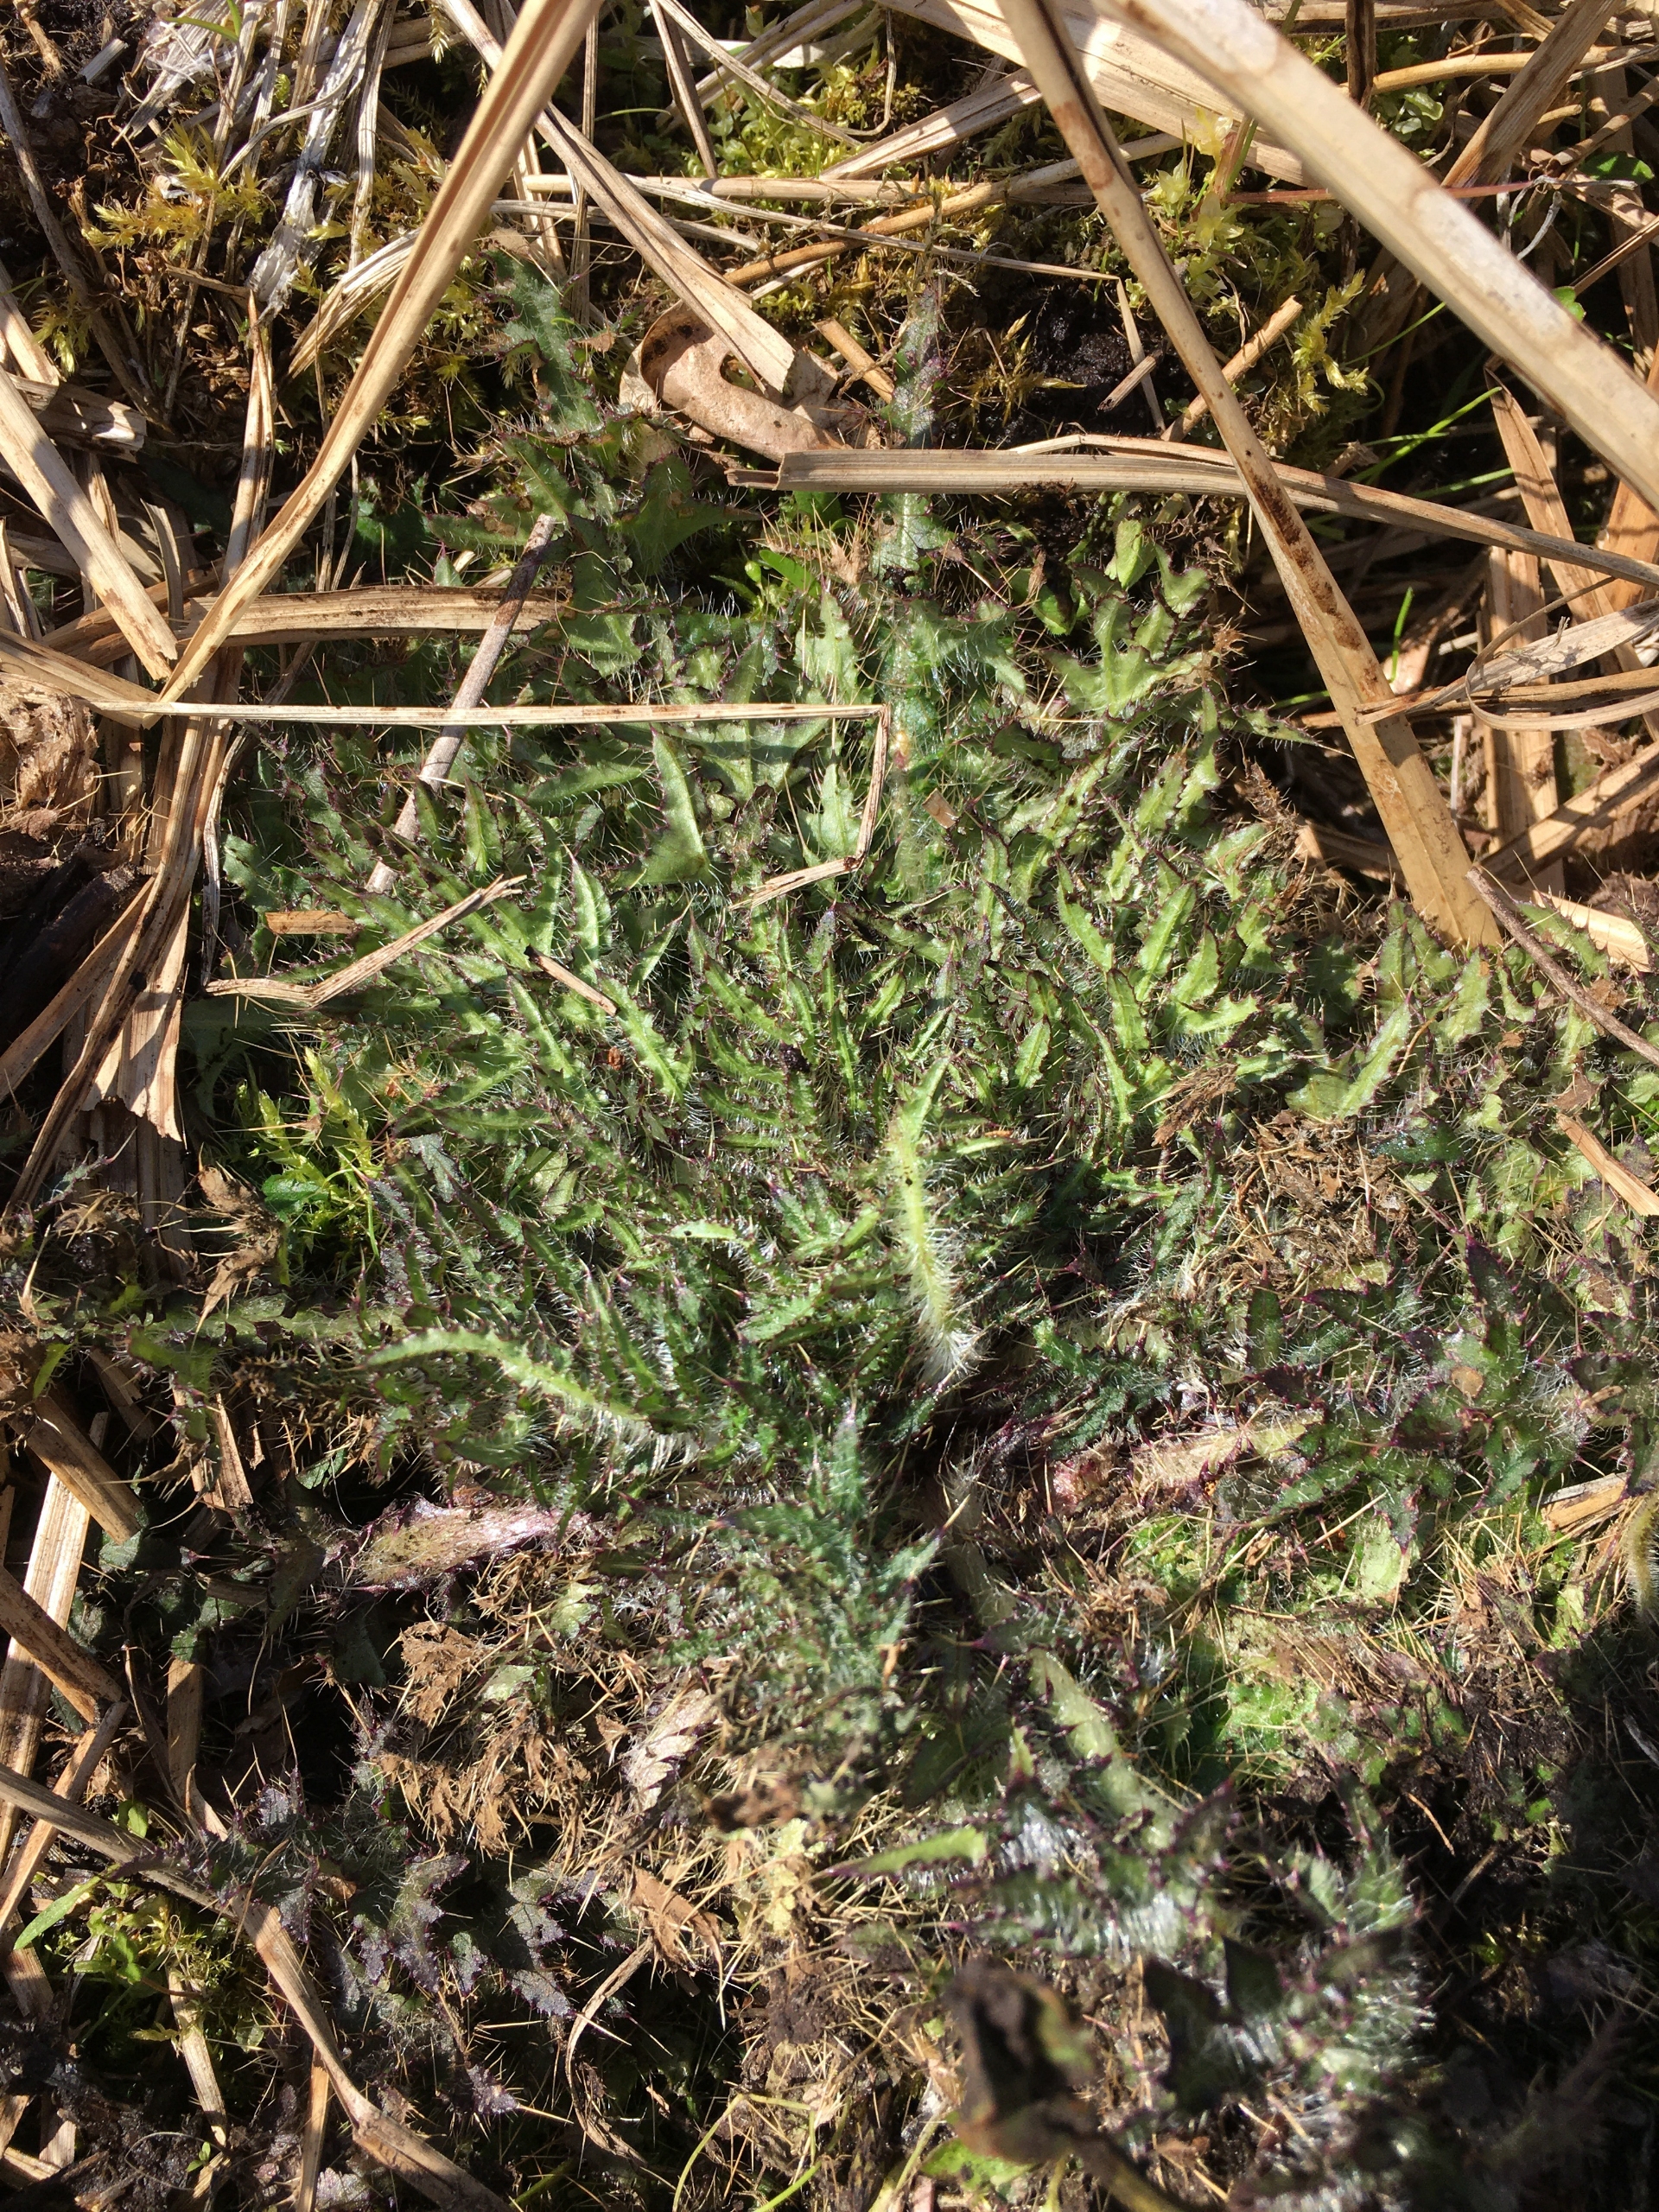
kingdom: Plantae
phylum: Tracheophyta
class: Magnoliopsida
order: Asterales
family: Asteraceae
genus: Cirsium
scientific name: Cirsium palustre
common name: Kær-tidsel
